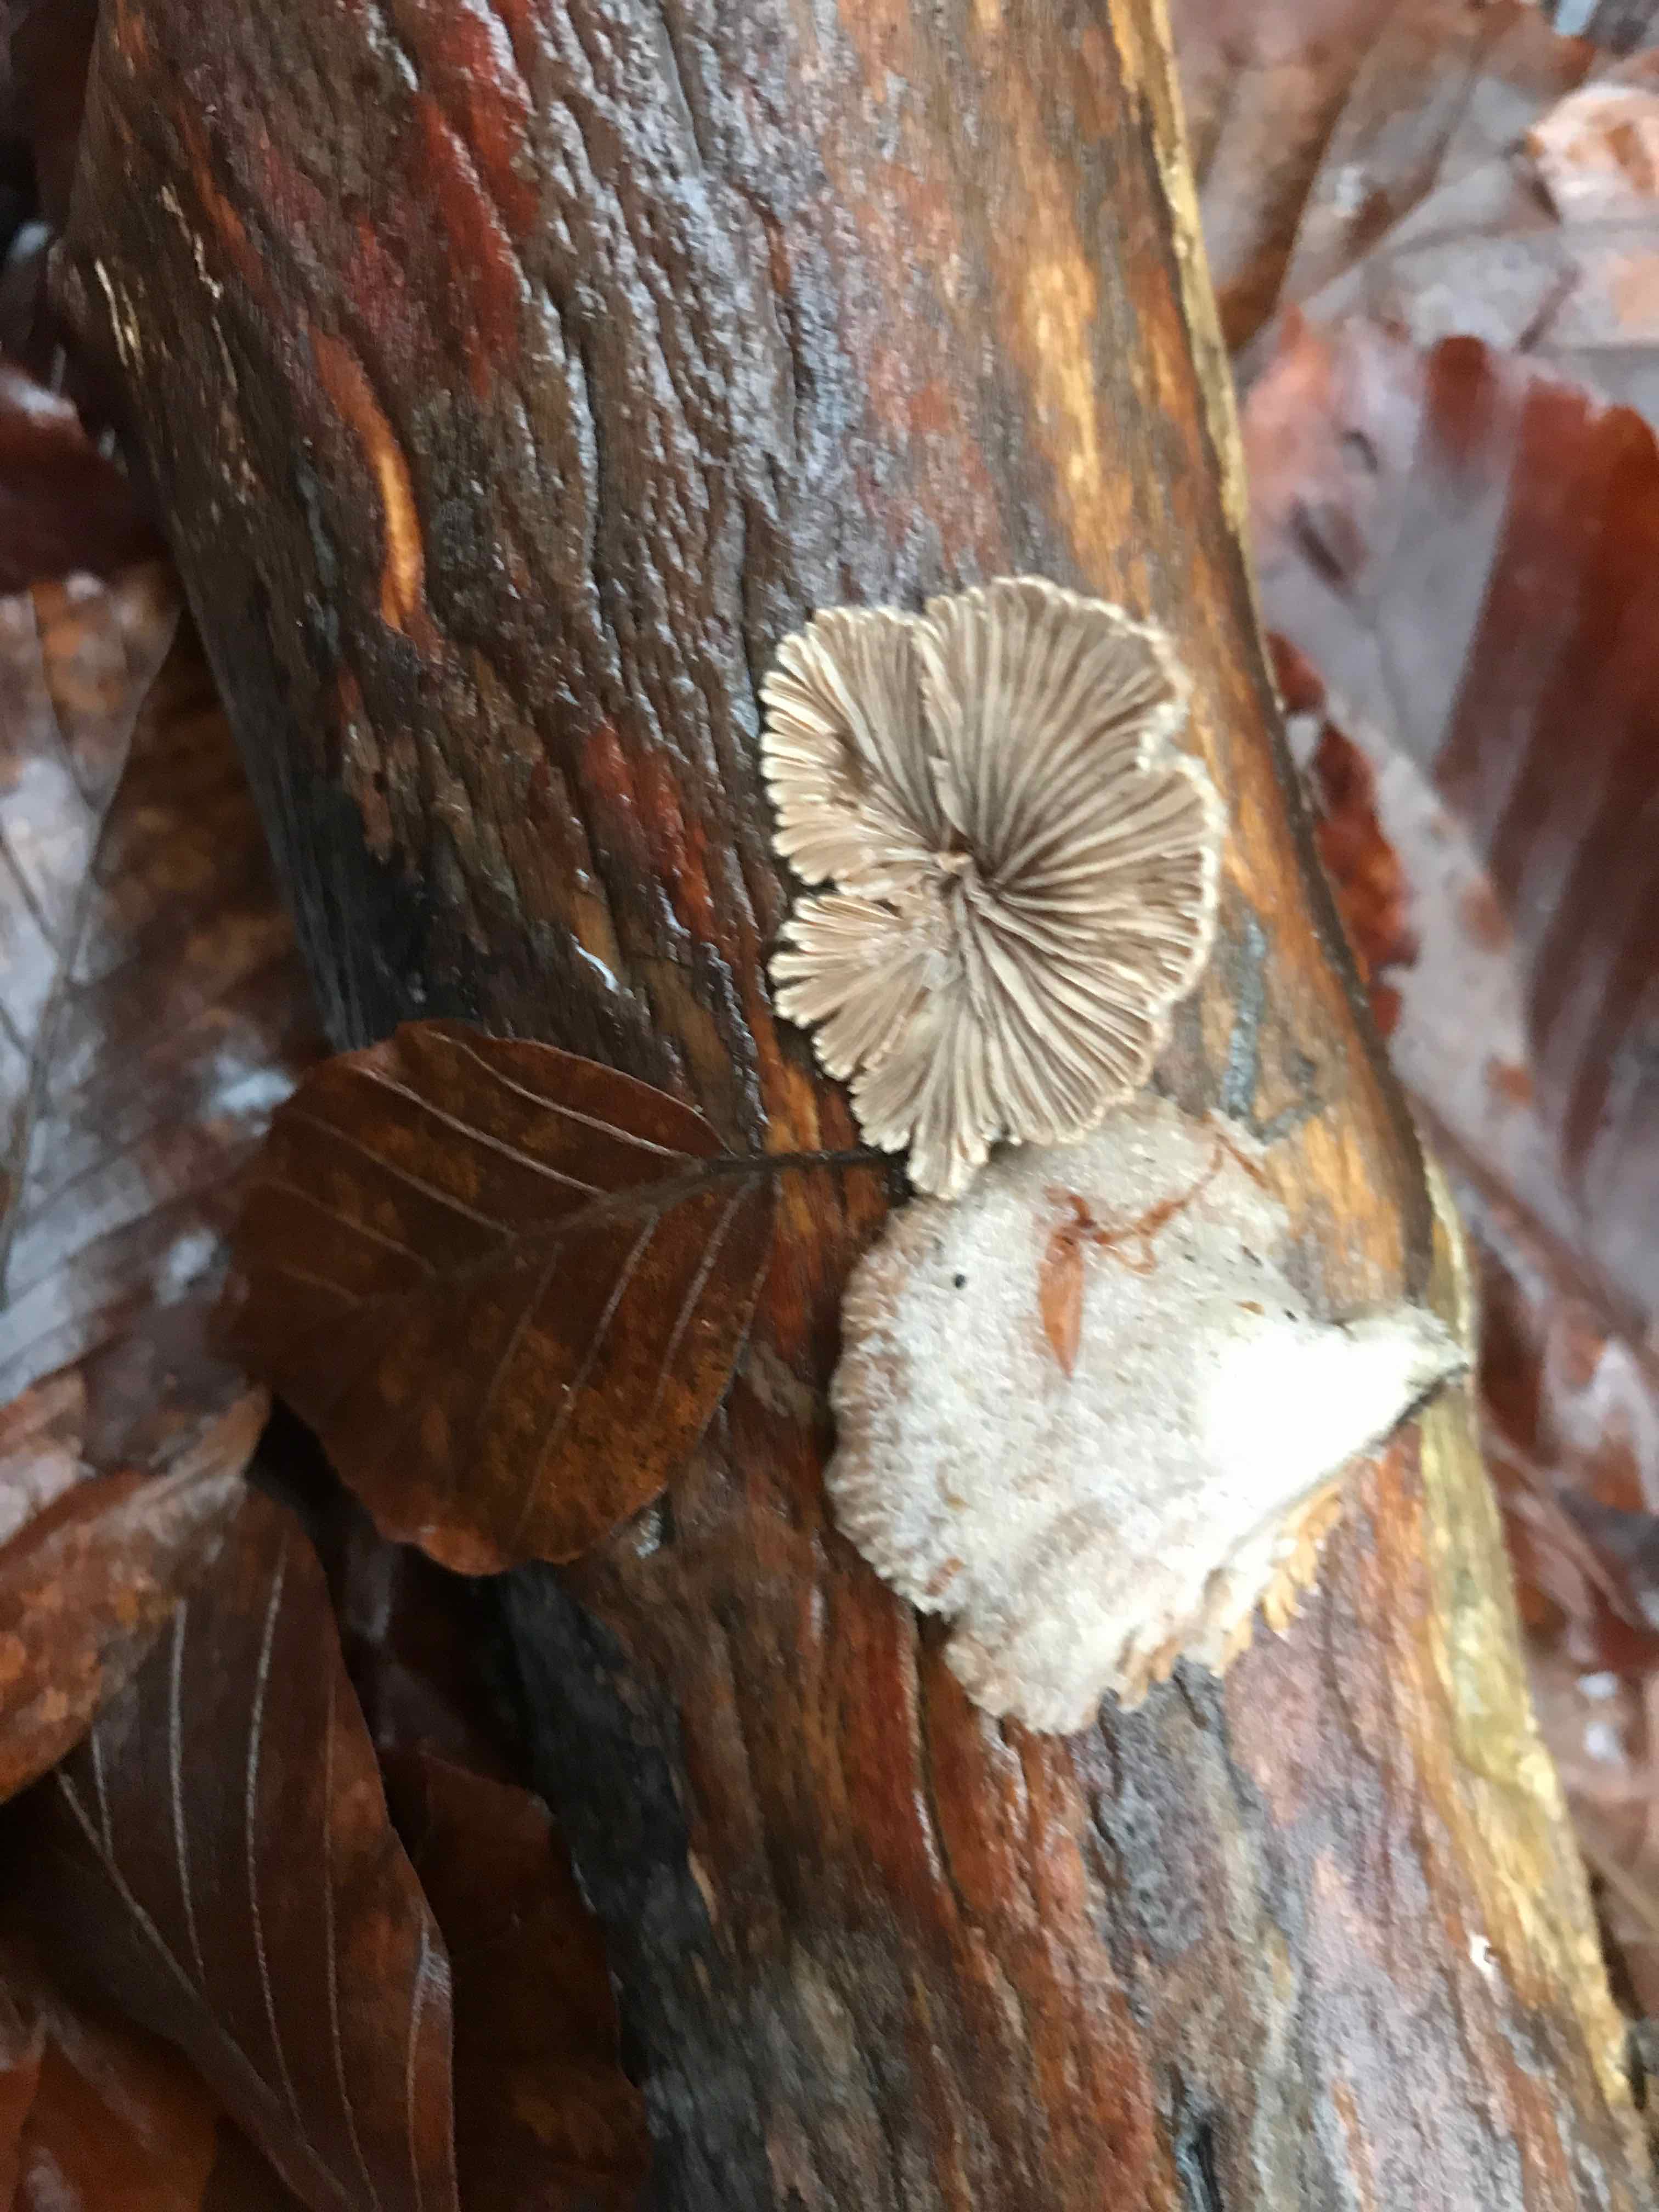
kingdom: Fungi
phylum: Basidiomycota
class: Agaricomycetes
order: Agaricales
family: Schizophyllaceae
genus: Schizophyllum
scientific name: Schizophyllum commune
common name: kløvblad
